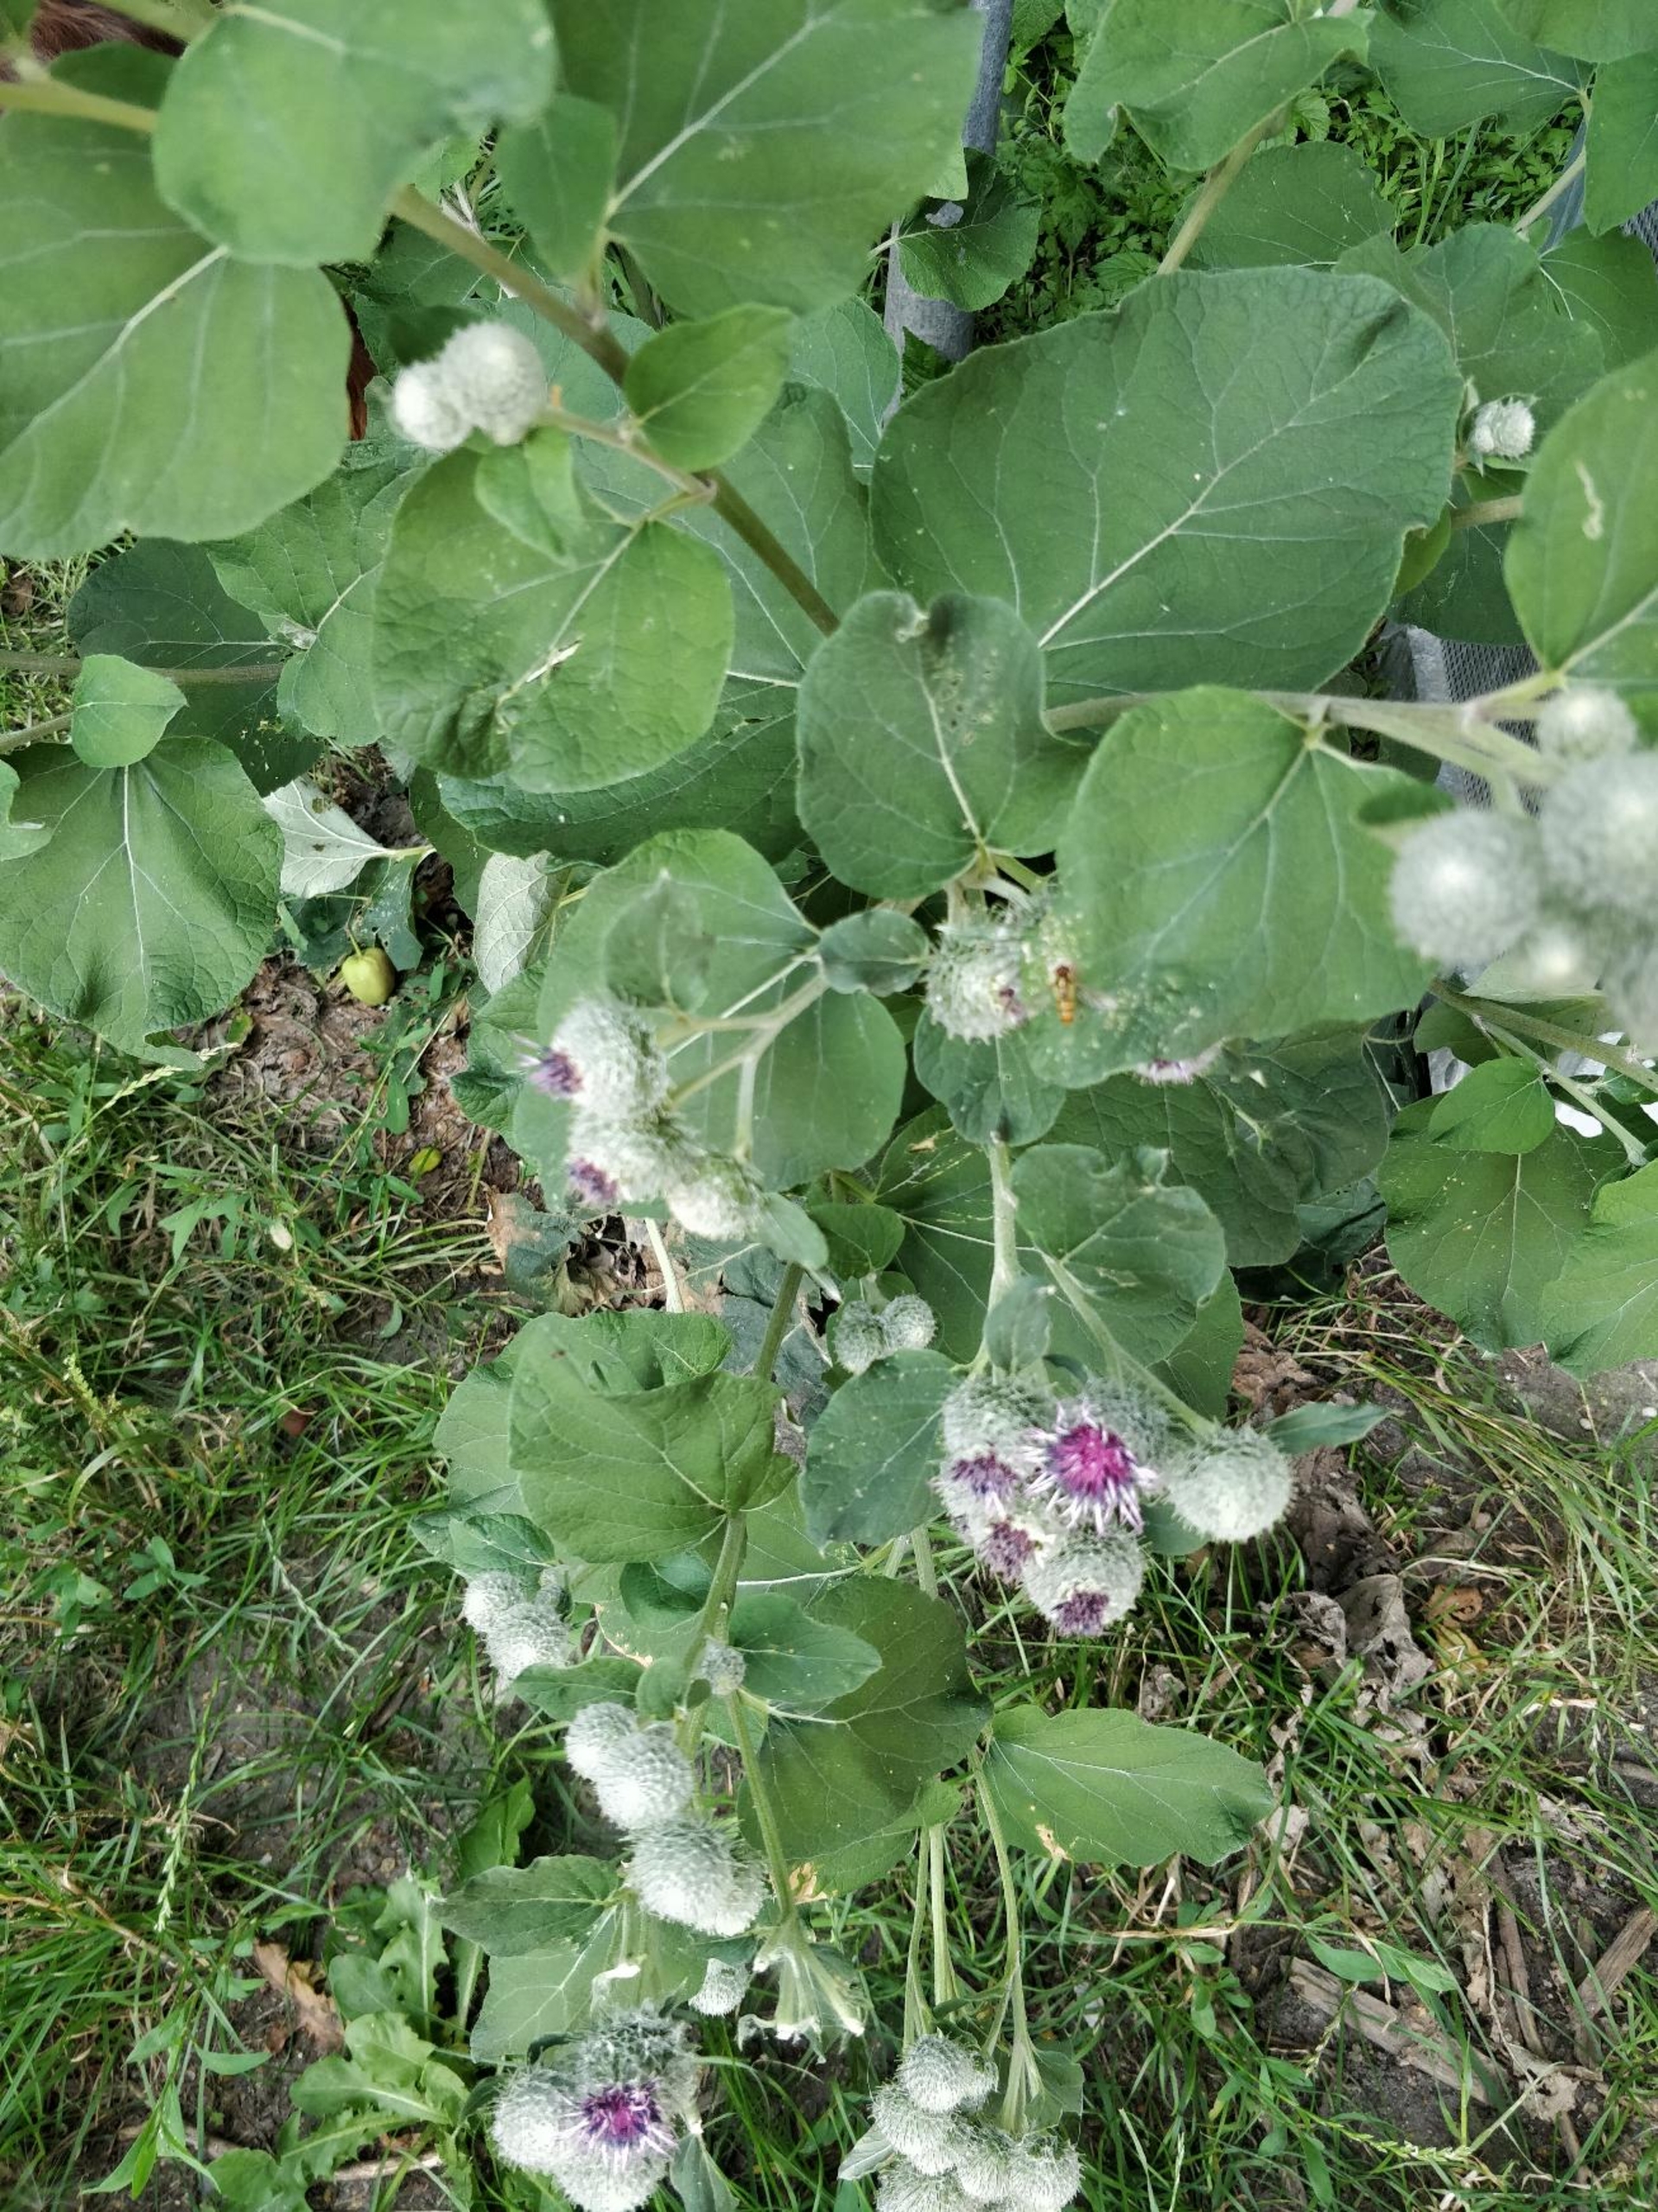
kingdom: Plantae
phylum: Tracheophyta
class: Magnoliopsida
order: Asterales
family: Asteraceae
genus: Arctium
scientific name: Arctium tomentosum
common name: Filtet burre
